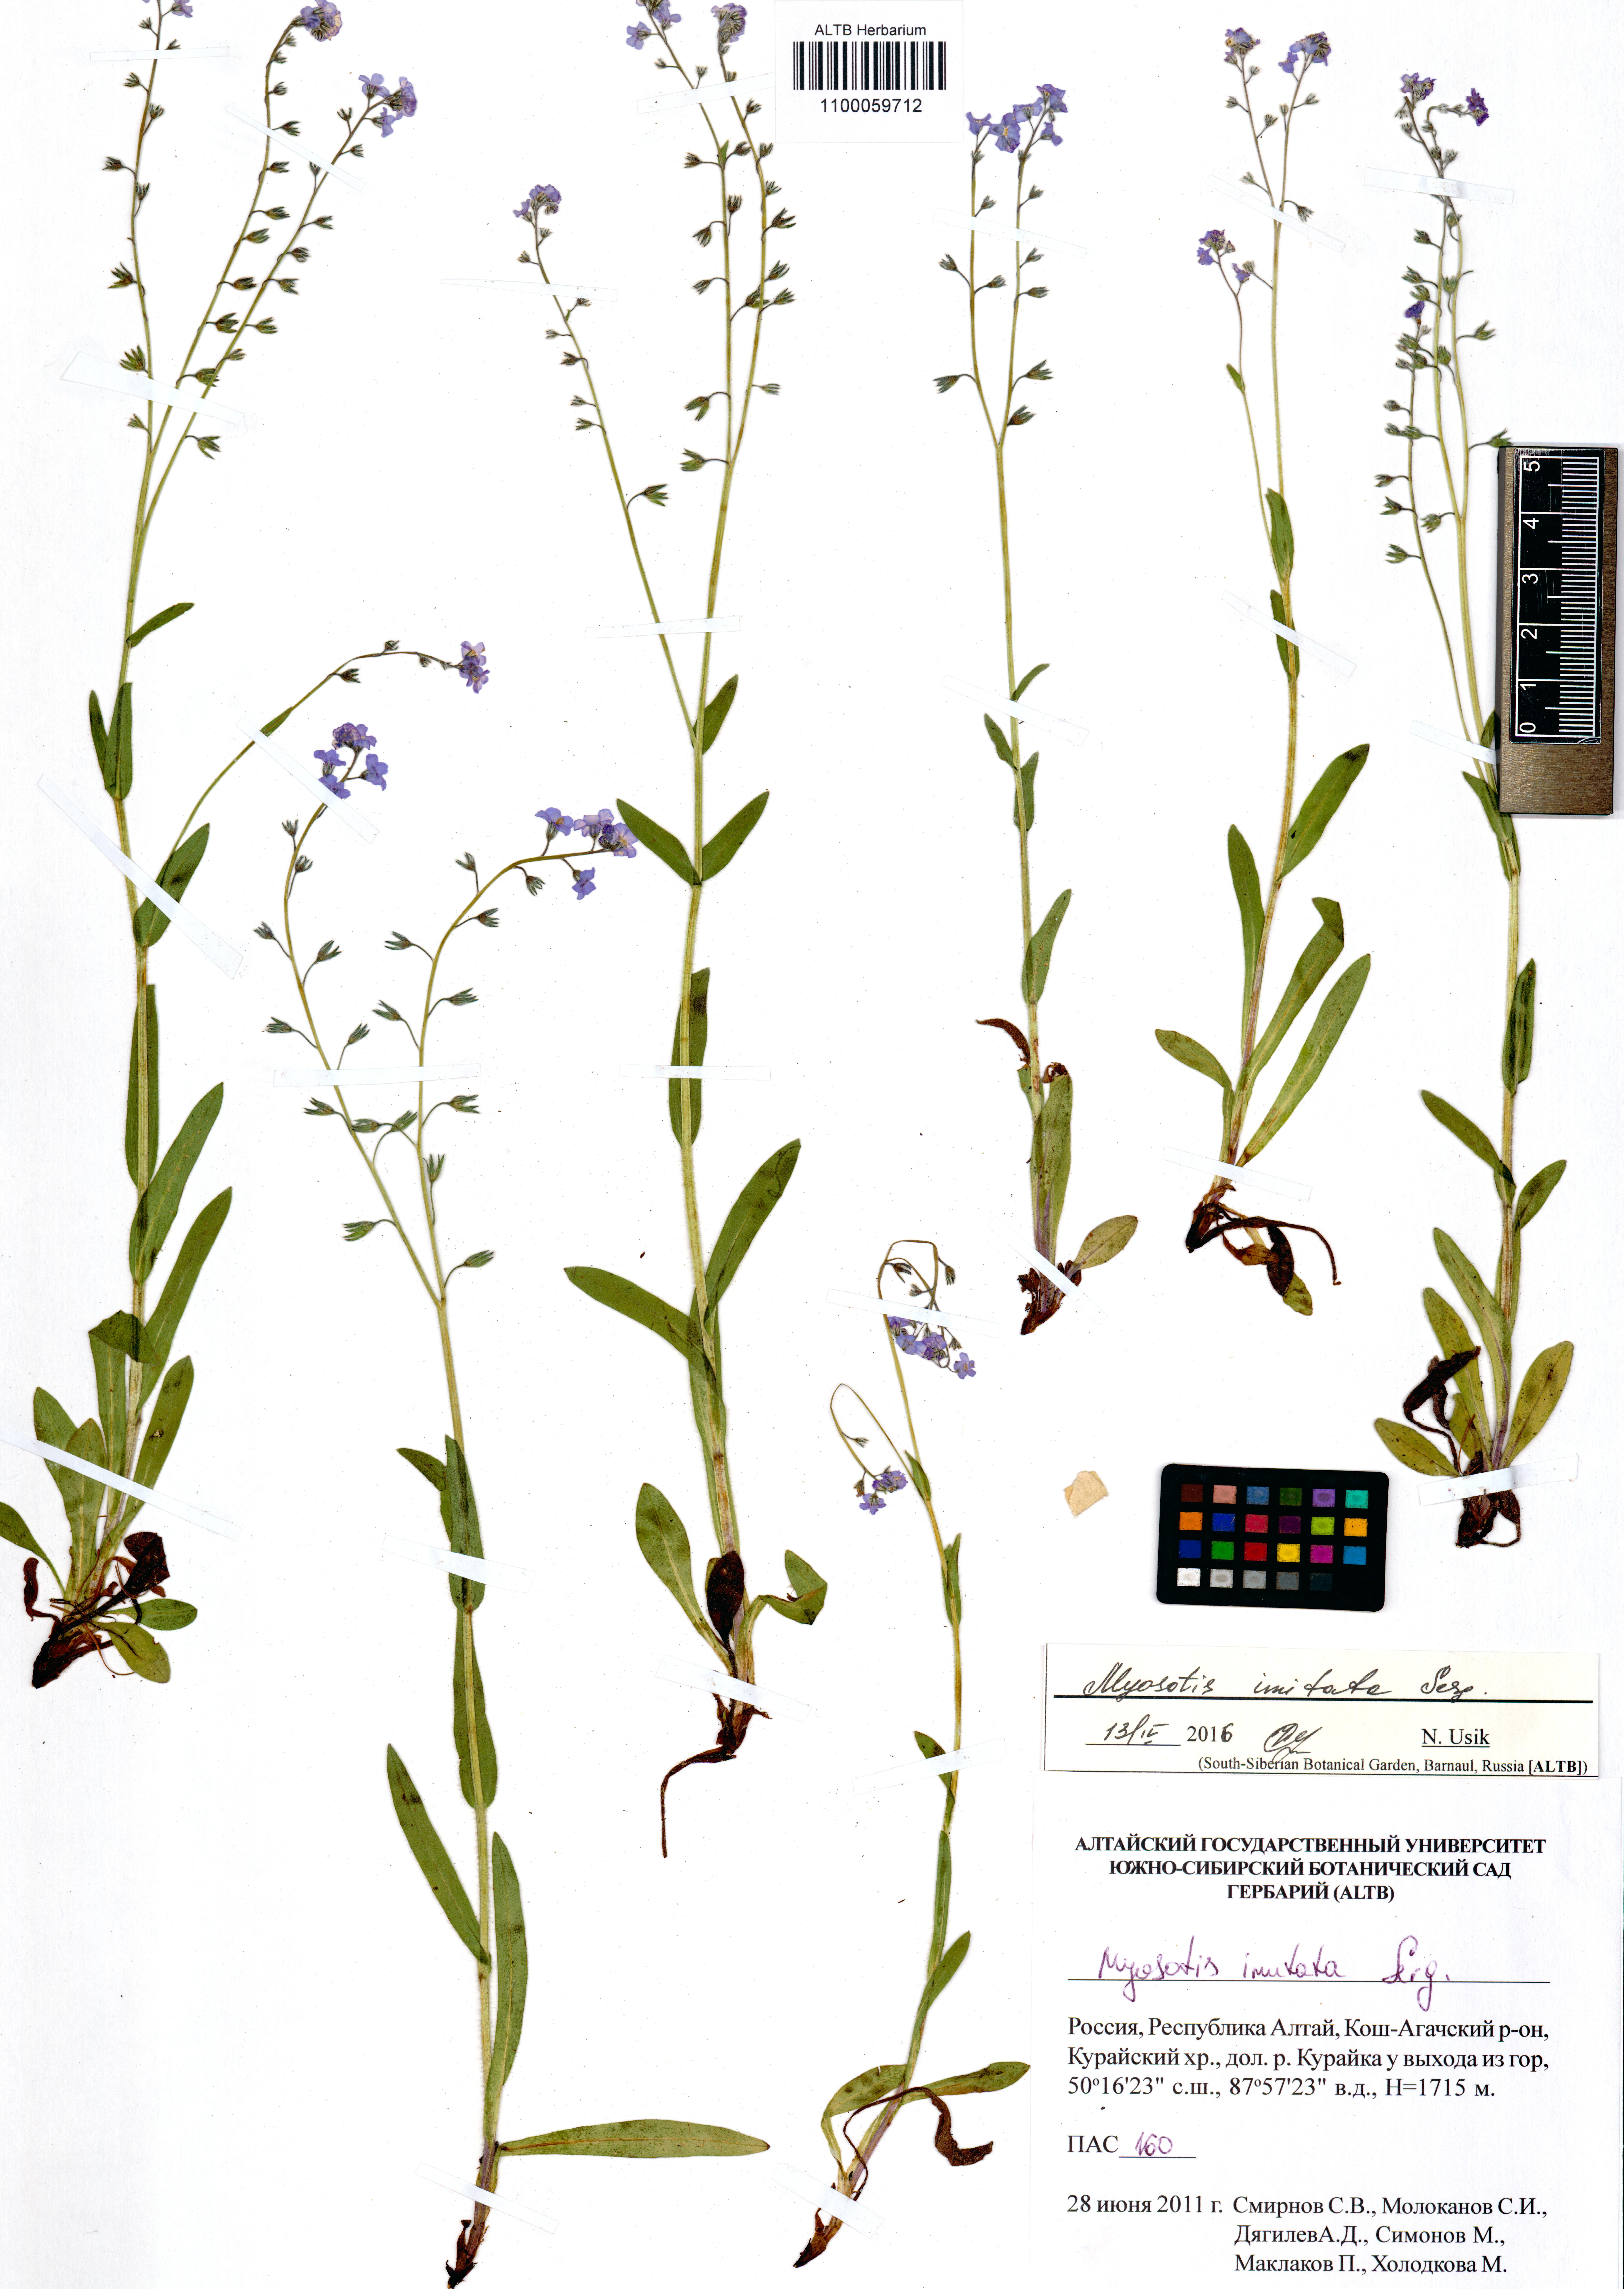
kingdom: Plantae
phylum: Tracheophyta
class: Magnoliopsida
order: Boraginales
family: Boraginaceae
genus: Myosotis
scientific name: Myosotis imitata
